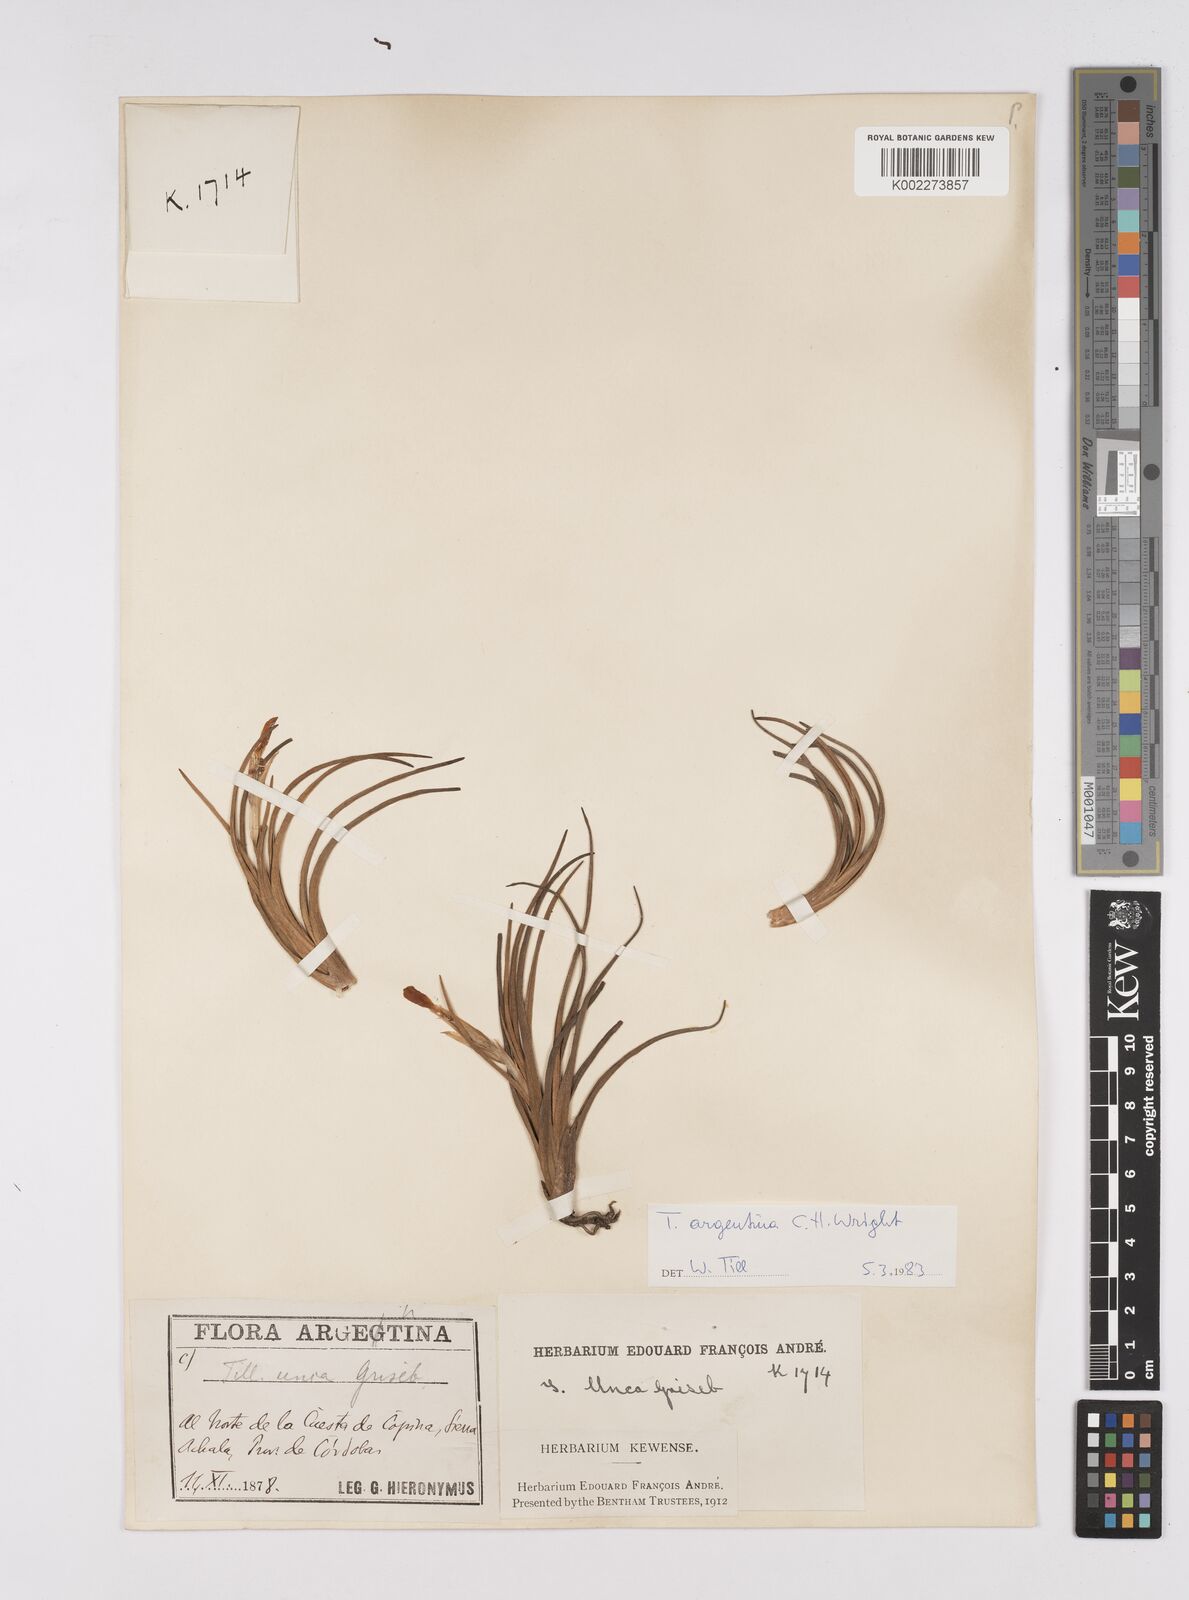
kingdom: Plantae
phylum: Tracheophyta
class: Liliopsida
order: Poales
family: Bromeliaceae
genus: Tillandsia
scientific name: Tillandsia argentina
